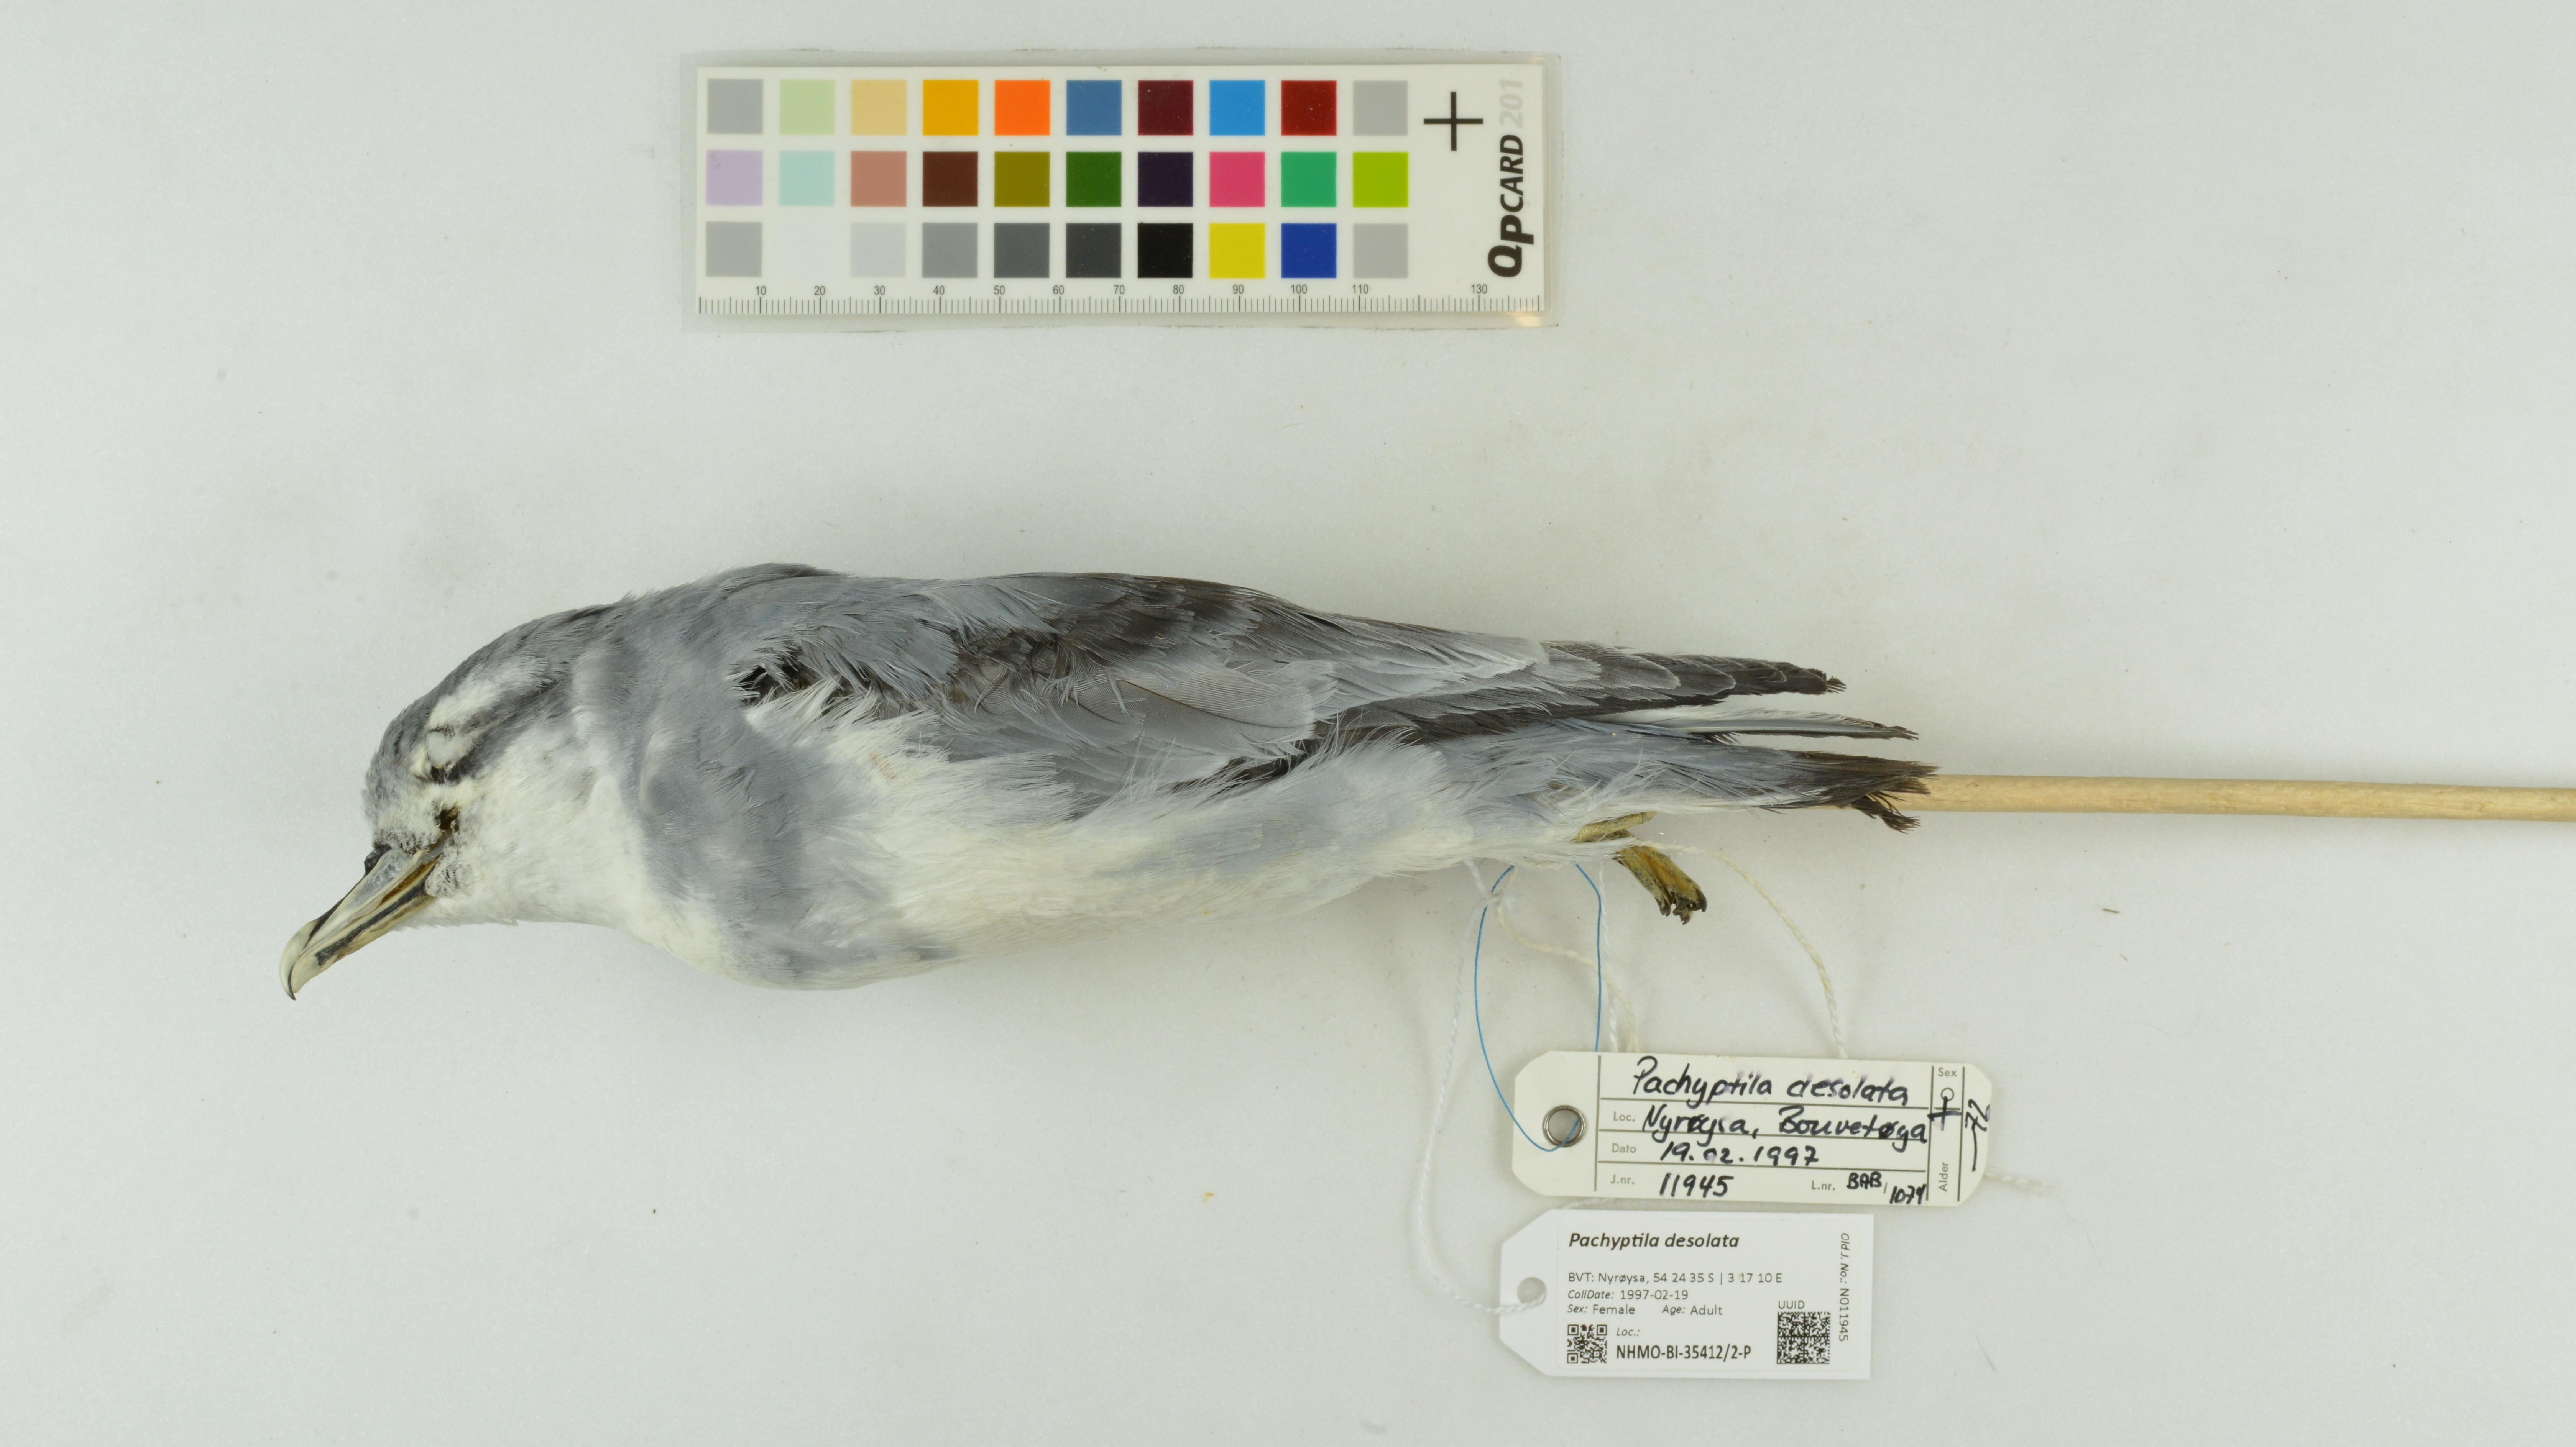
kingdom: Animalia
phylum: Chordata
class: Aves
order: Procellariiformes
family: Procellariidae
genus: Pachyptila
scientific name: Pachyptila desolata
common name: Antarctic prion
